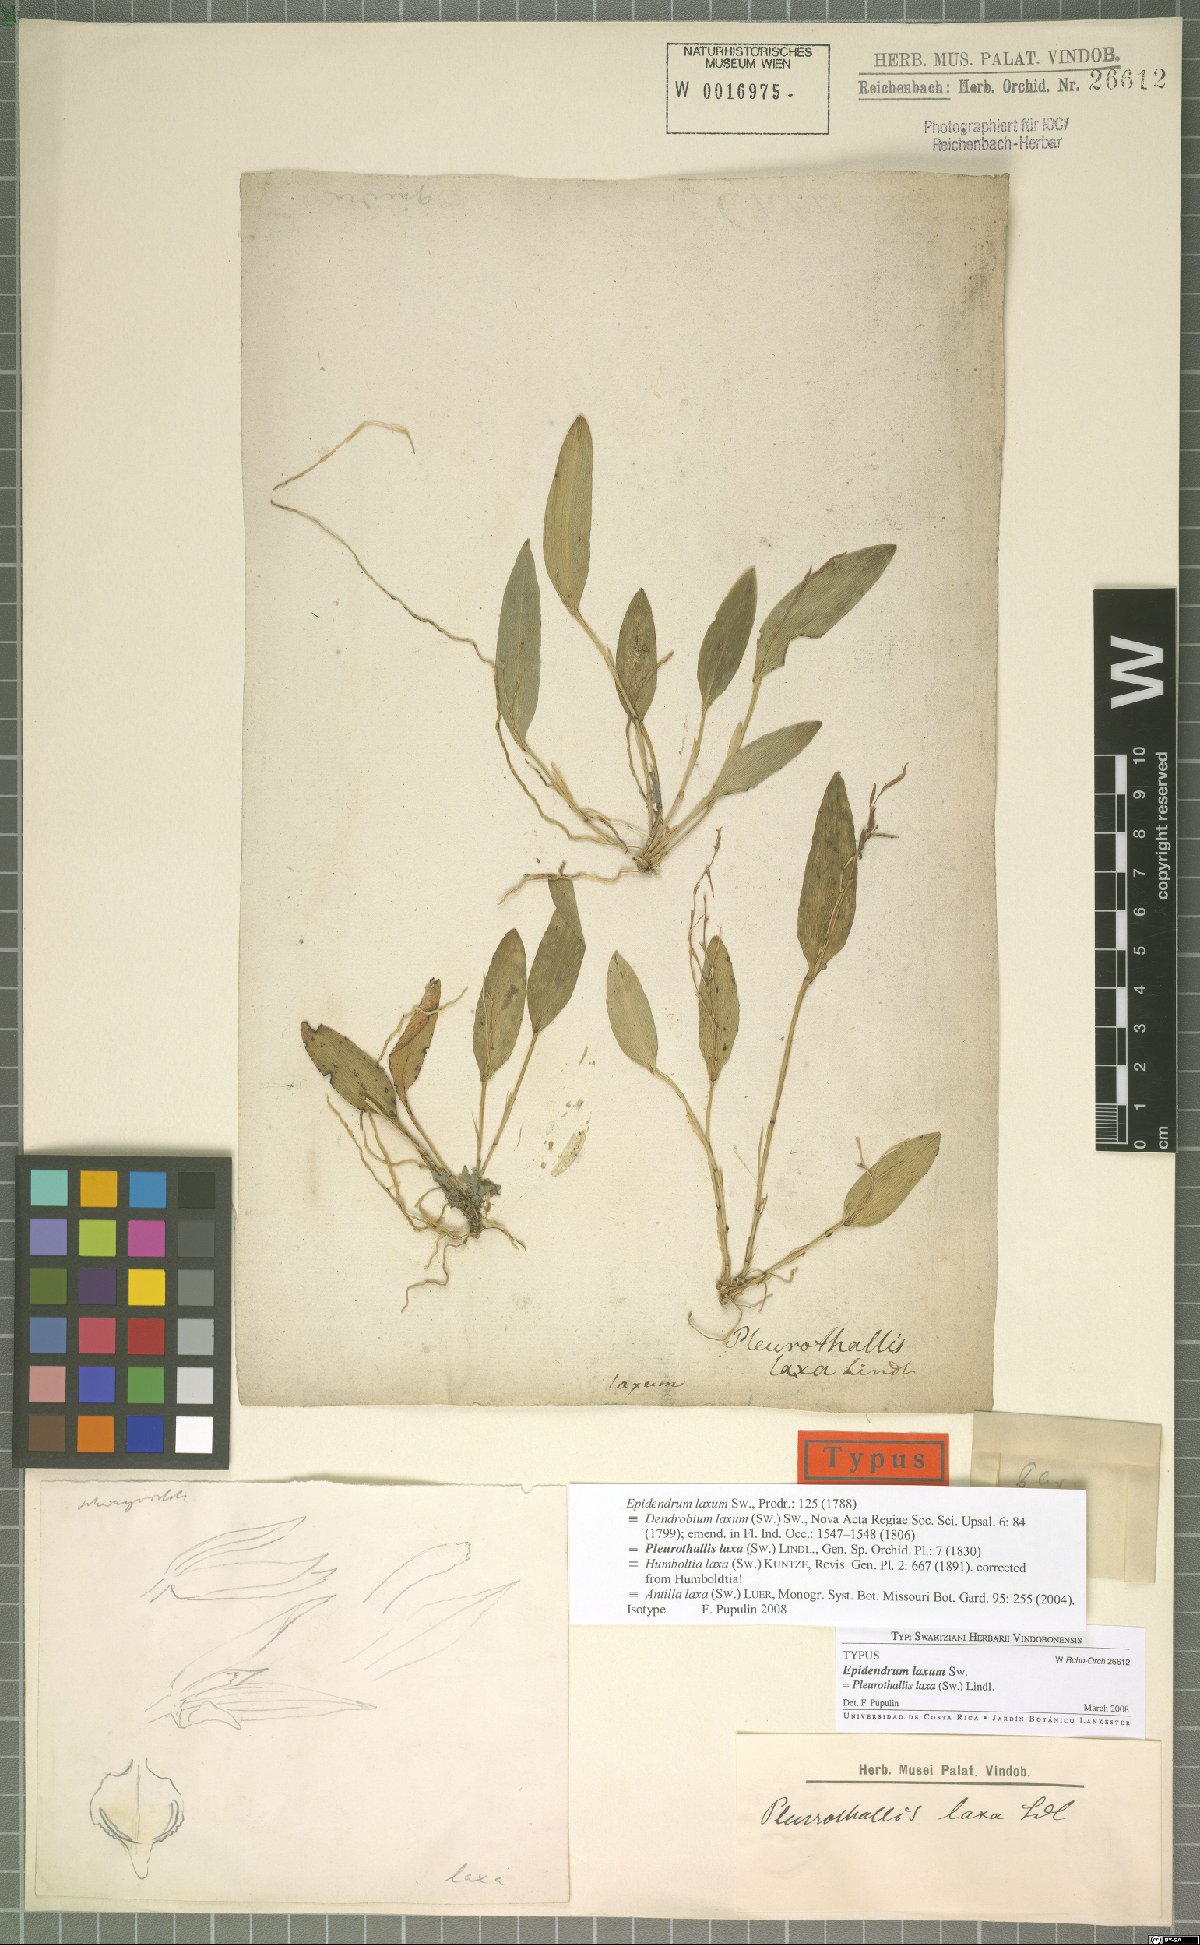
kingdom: Plantae
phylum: Tracheophyta
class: Liliopsida
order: Asparagales
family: Orchidaceae
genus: Acianthera
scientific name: Acianthera laxa
